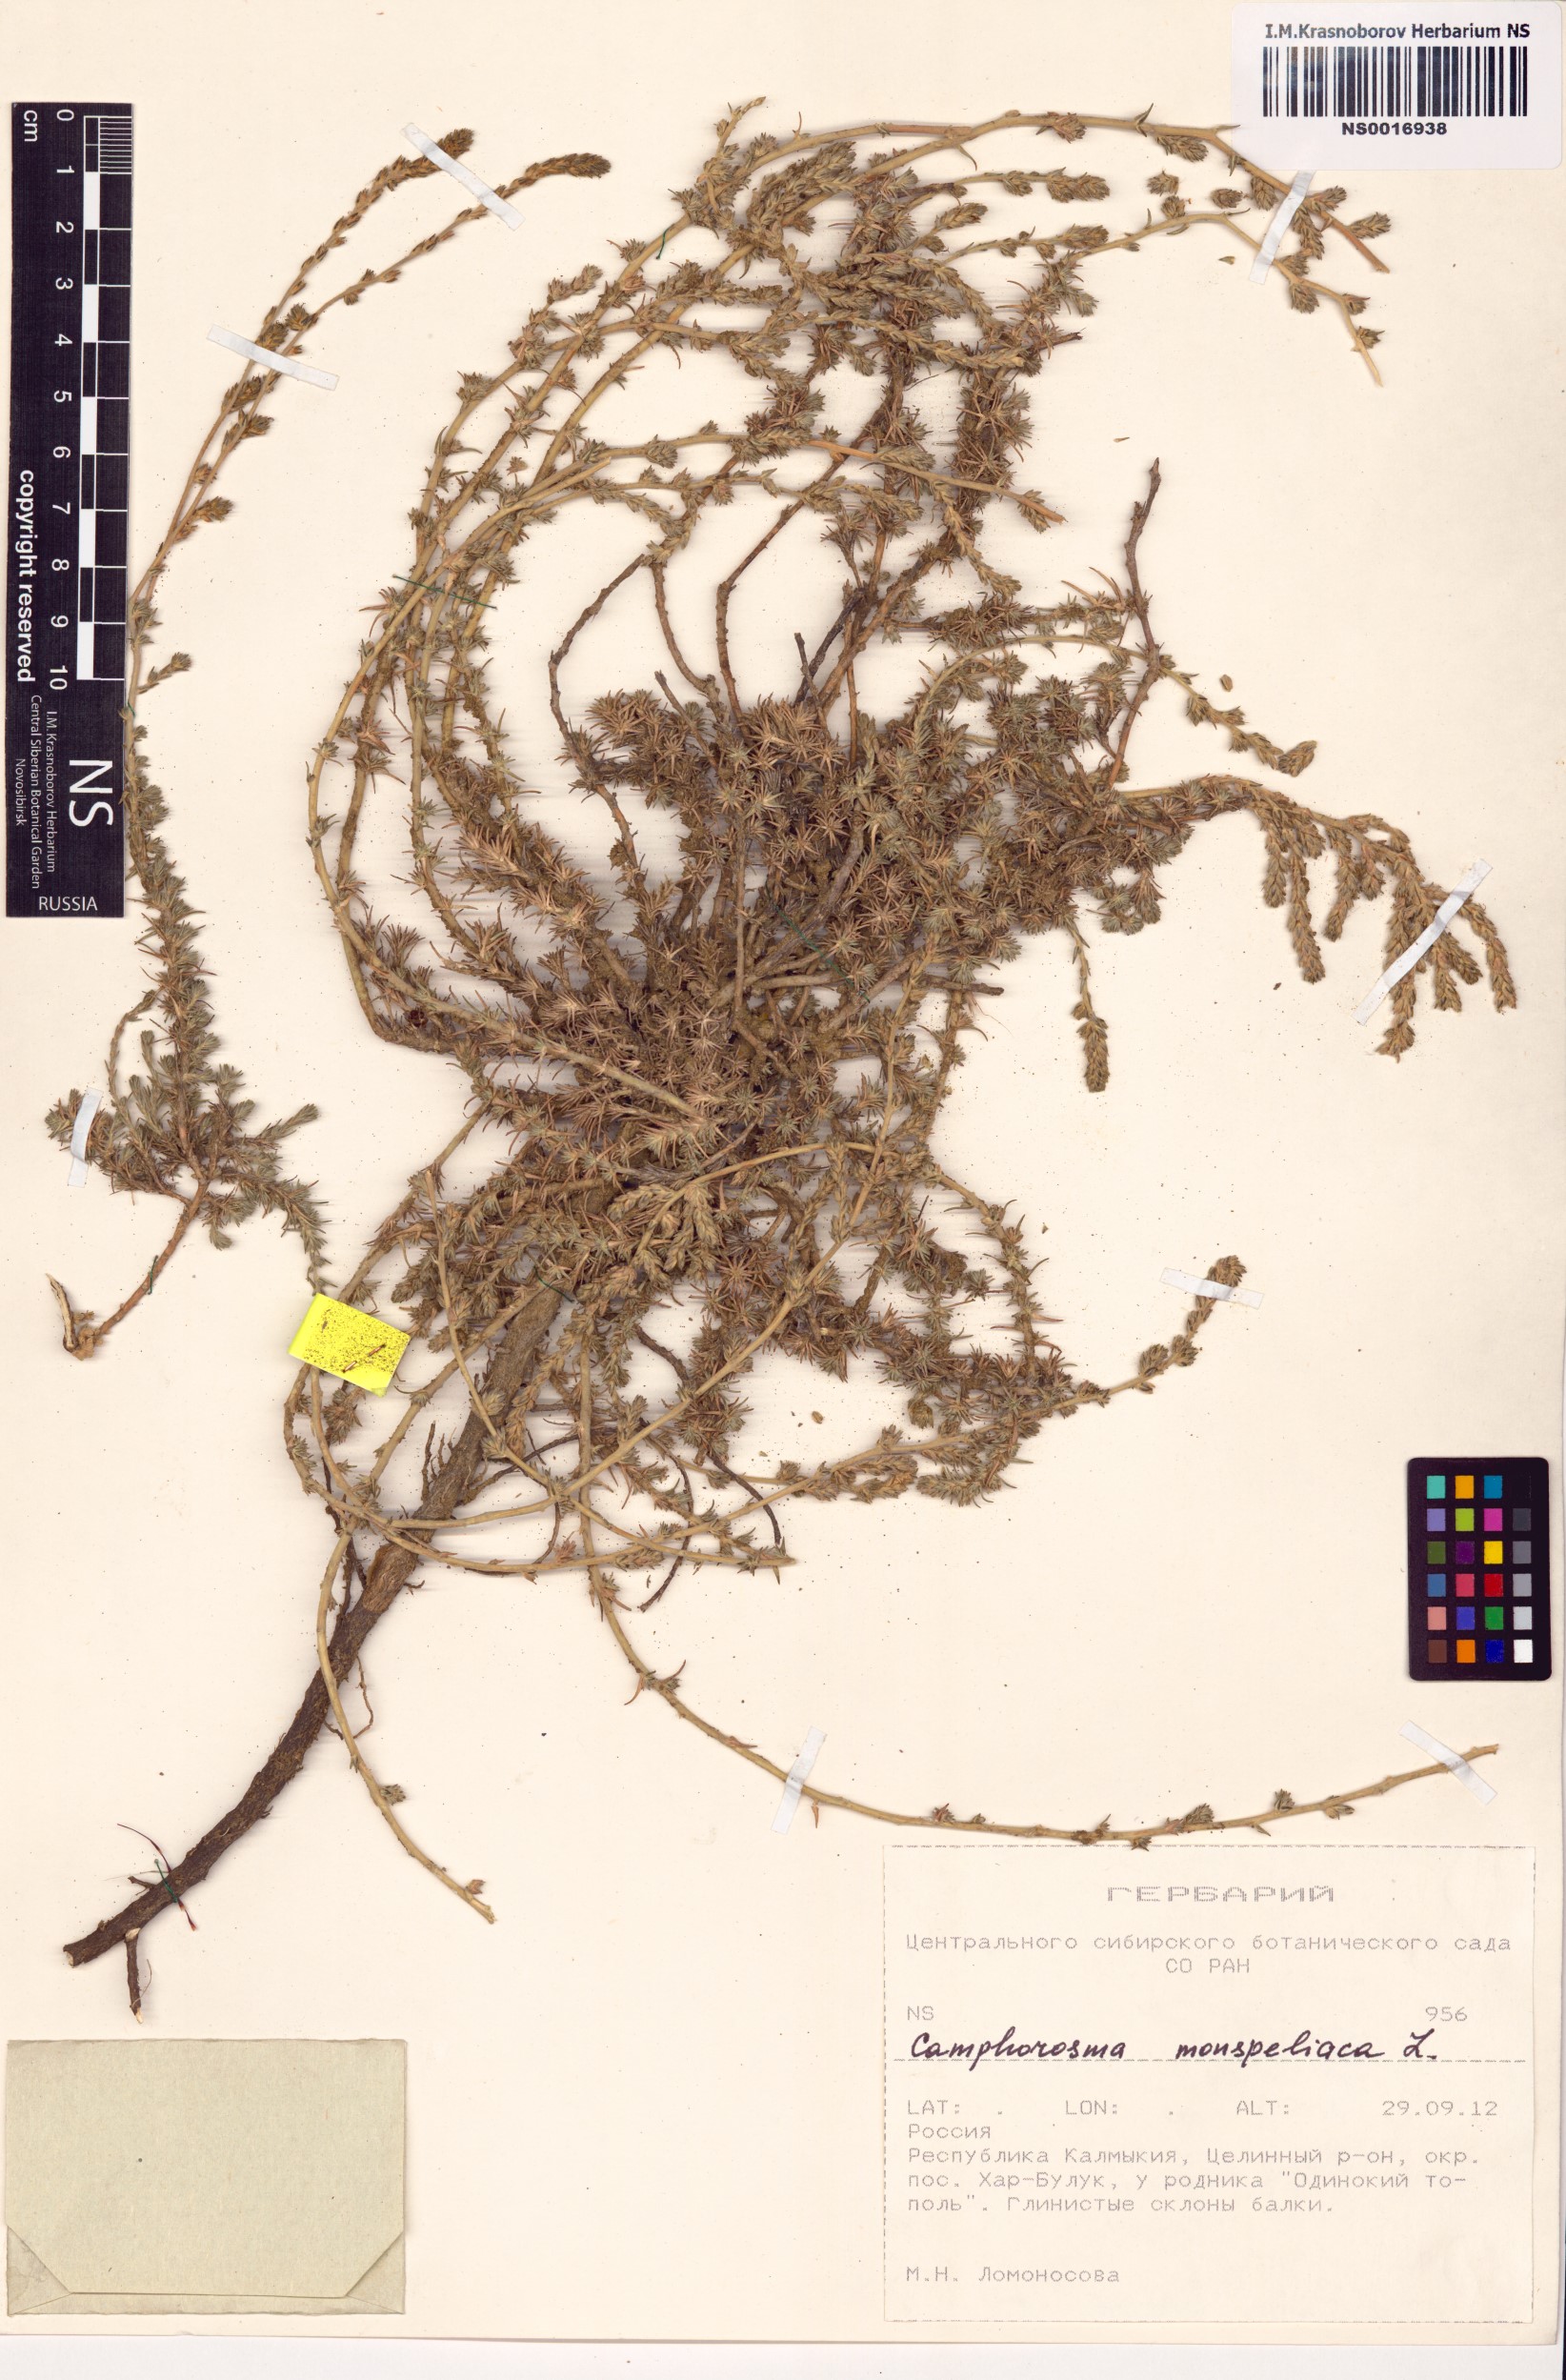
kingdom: Plantae
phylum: Tracheophyta
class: Magnoliopsida
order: Caryophyllales
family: Amaranthaceae
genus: Camphorosma
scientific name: Camphorosma monspeliaca
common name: Camphorfume
